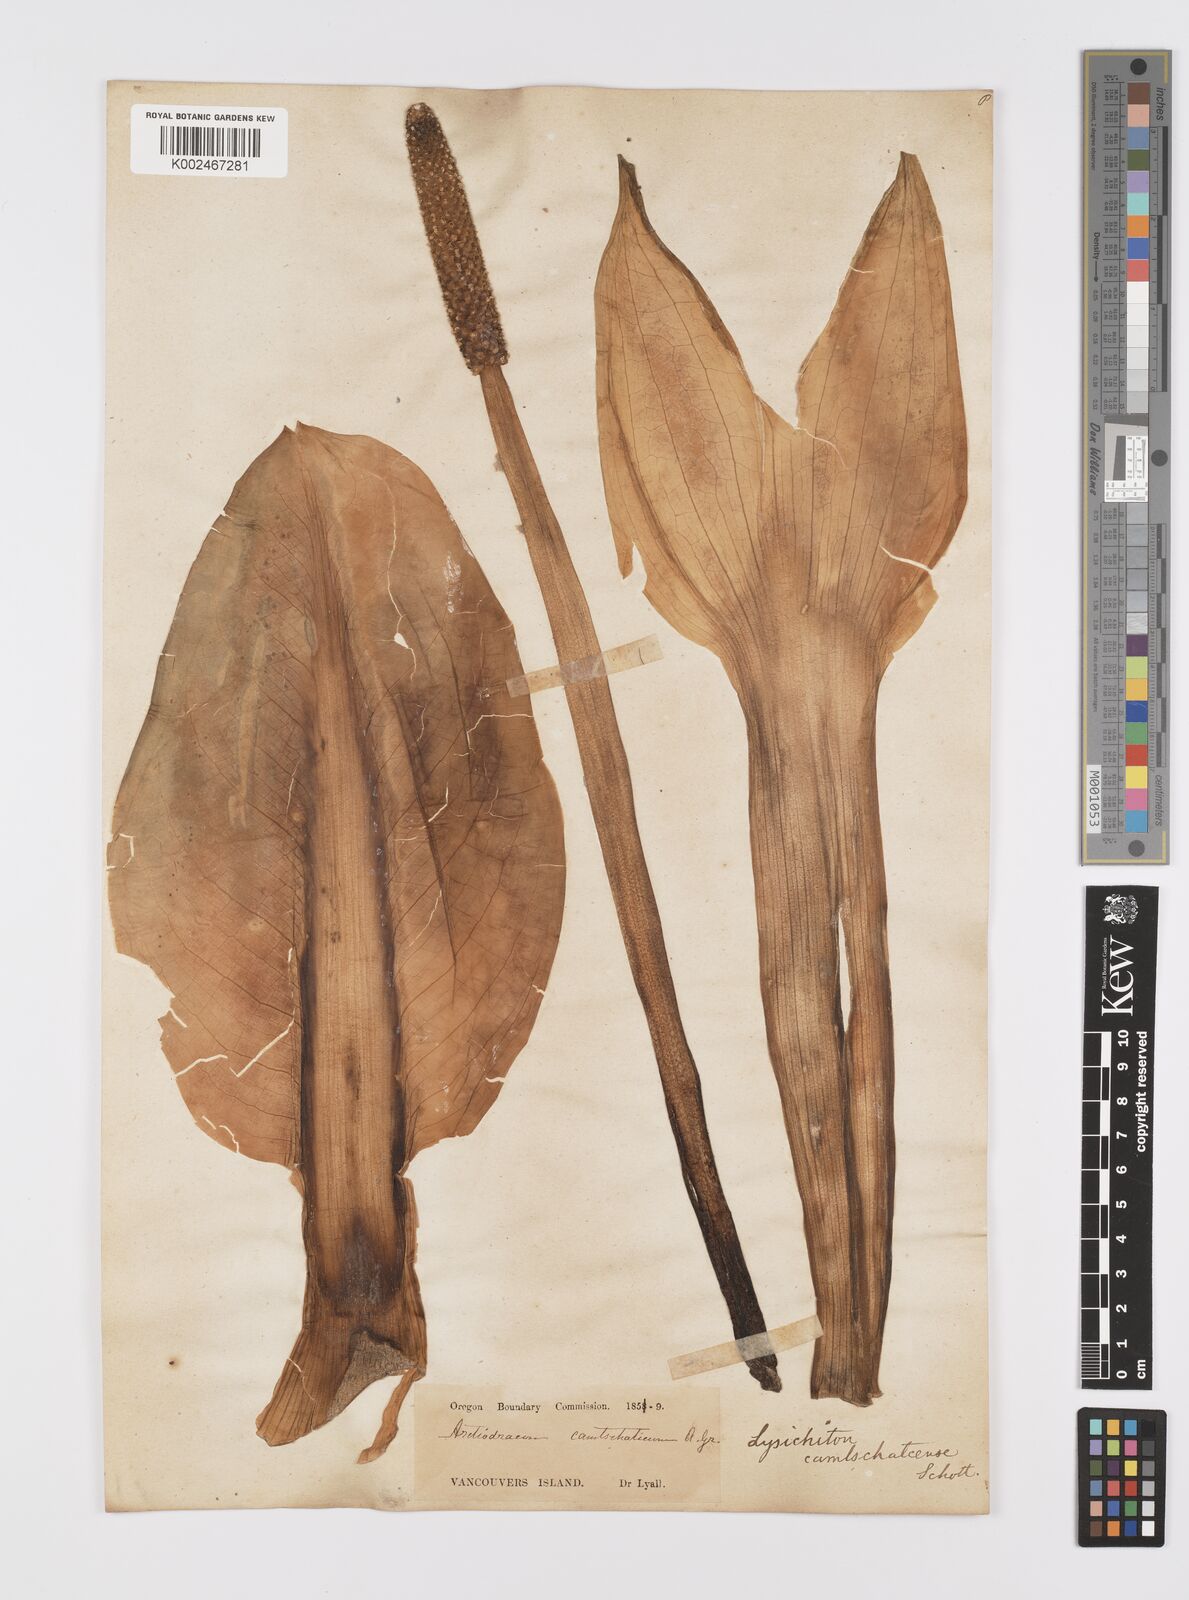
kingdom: Plantae
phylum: Tracheophyta
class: Liliopsida
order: Alismatales
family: Araceae
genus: Lysichiton
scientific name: Lysichiton americanus
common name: American skunk cabbage
